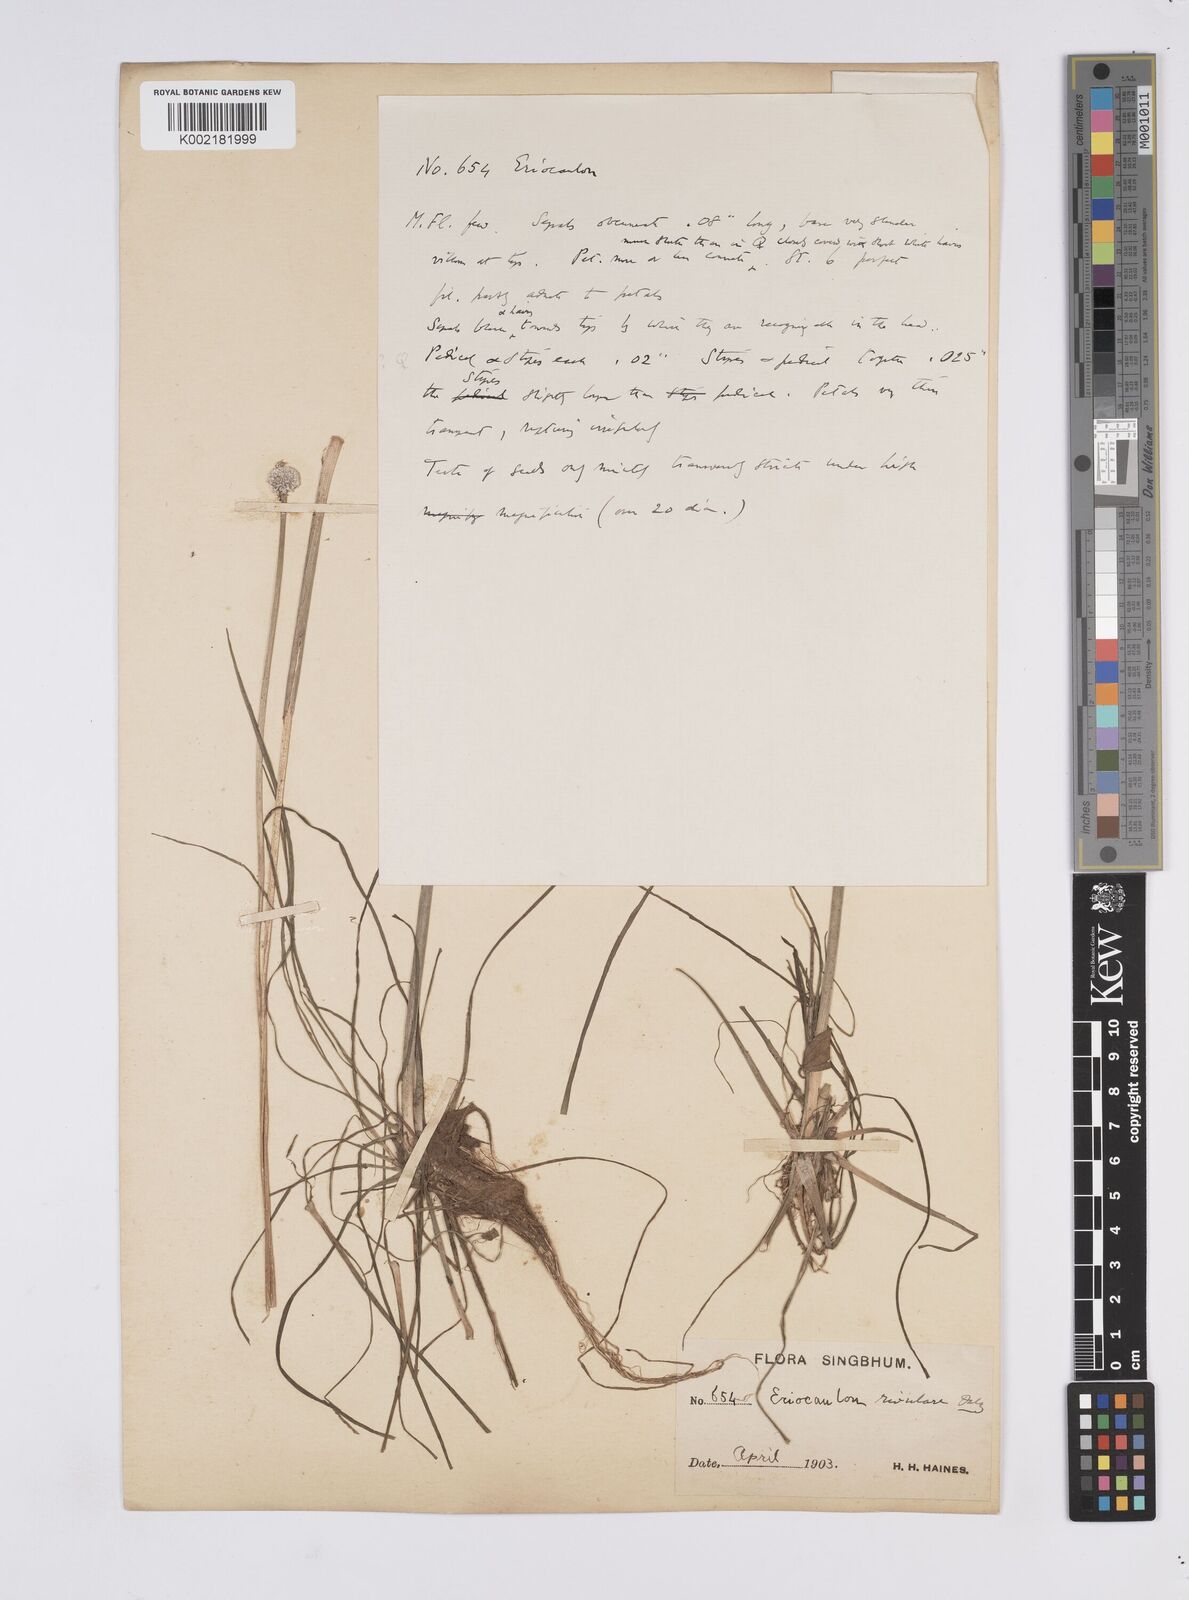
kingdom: Plantae
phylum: Tracheophyta
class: Liliopsida
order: Poales
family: Eriocaulaceae
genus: Eriocaulon
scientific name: Eriocaulon fluviatile
